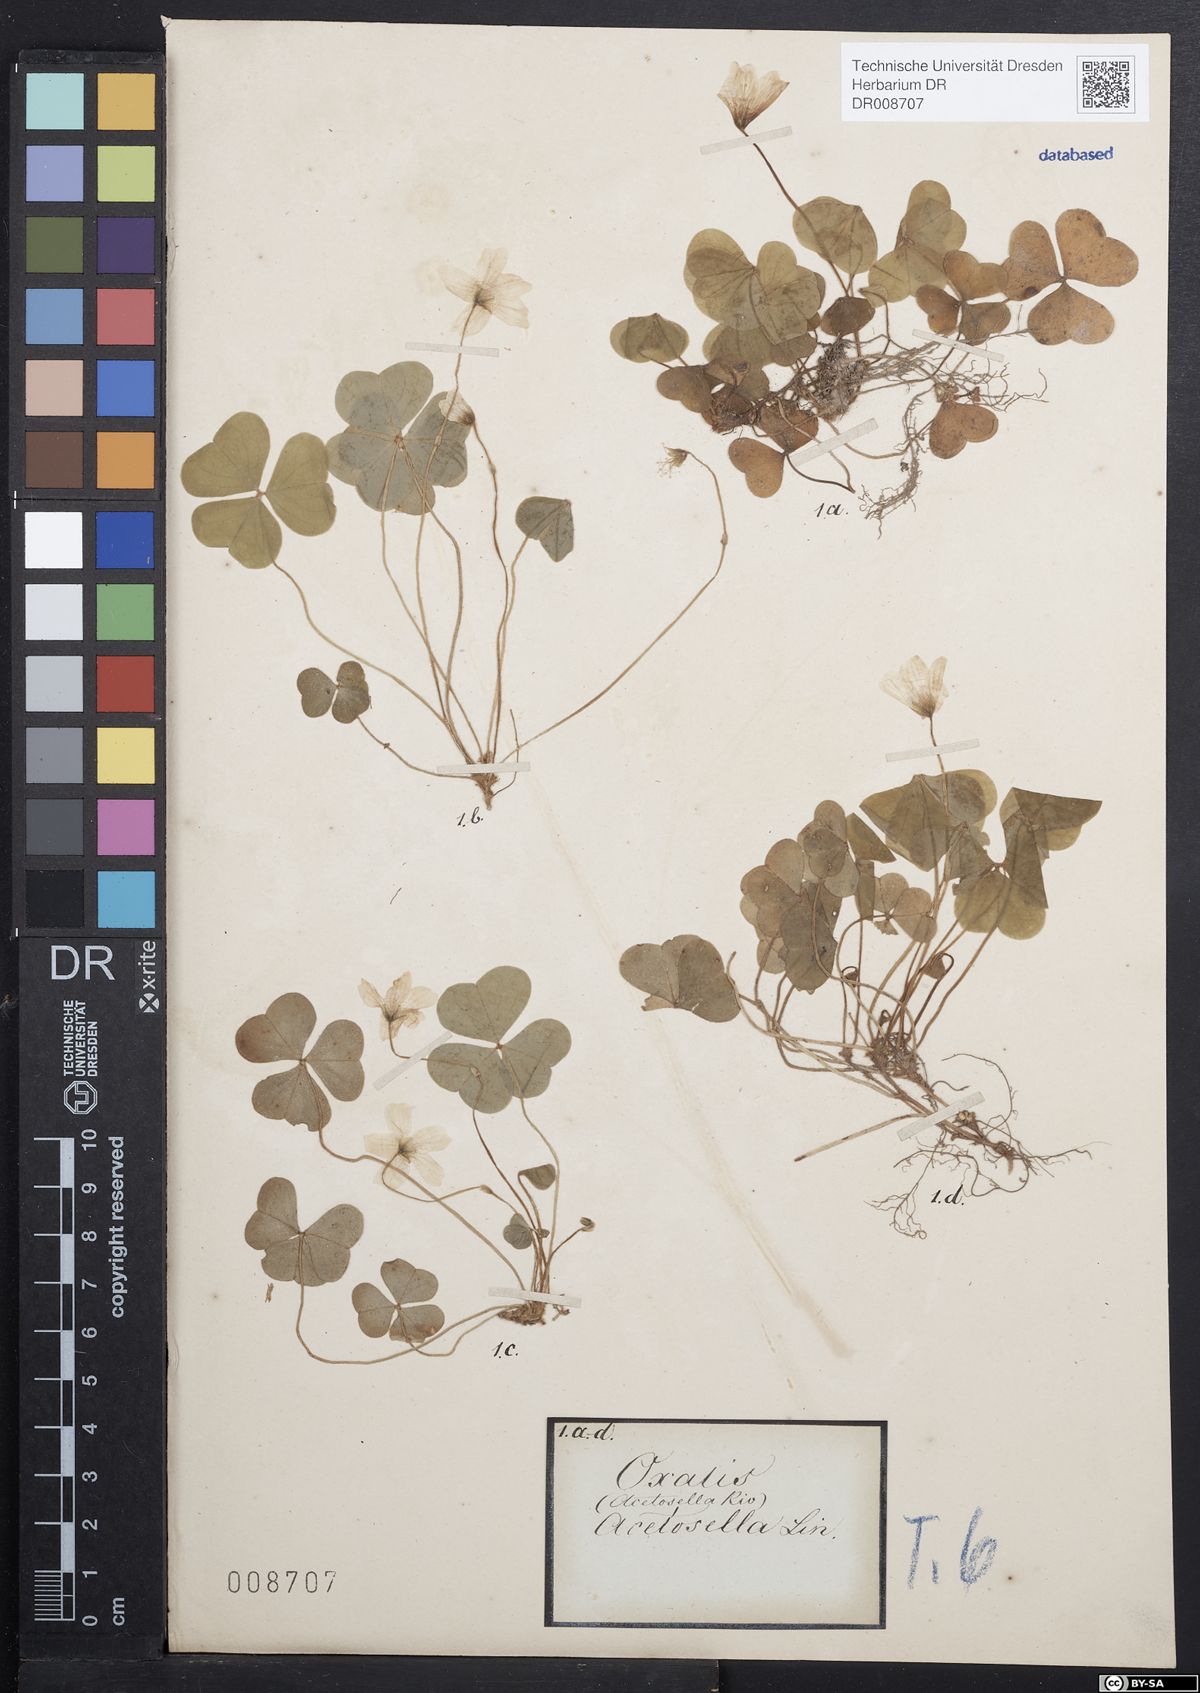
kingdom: Plantae
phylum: Tracheophyta
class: Magnoliopsida
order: Oxalidales
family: Oxalidaceae
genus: Oxalis
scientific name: Oxalis acetosella
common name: Wood-sorrel
